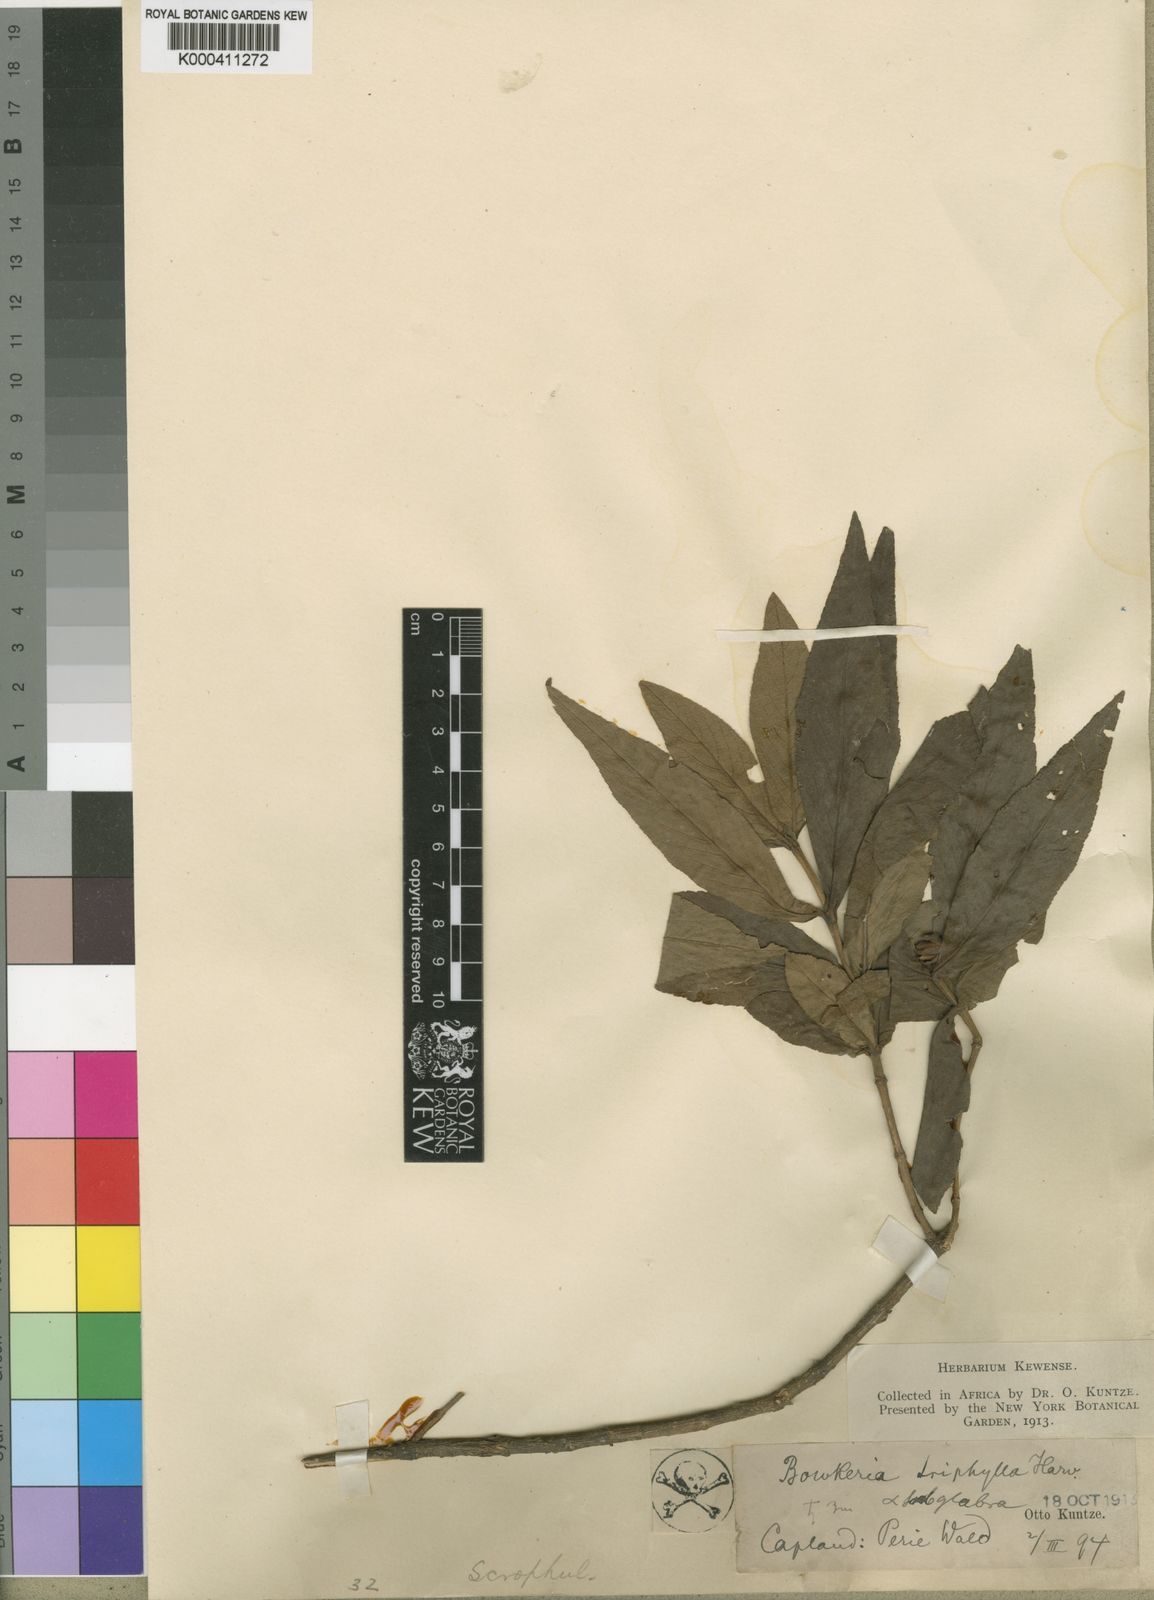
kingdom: Plantae
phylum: Tracheophyta
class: Magnoliopsida
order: Lamiales
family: Stilbaceae
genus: Bowkeria
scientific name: Bowkeria verticillata
